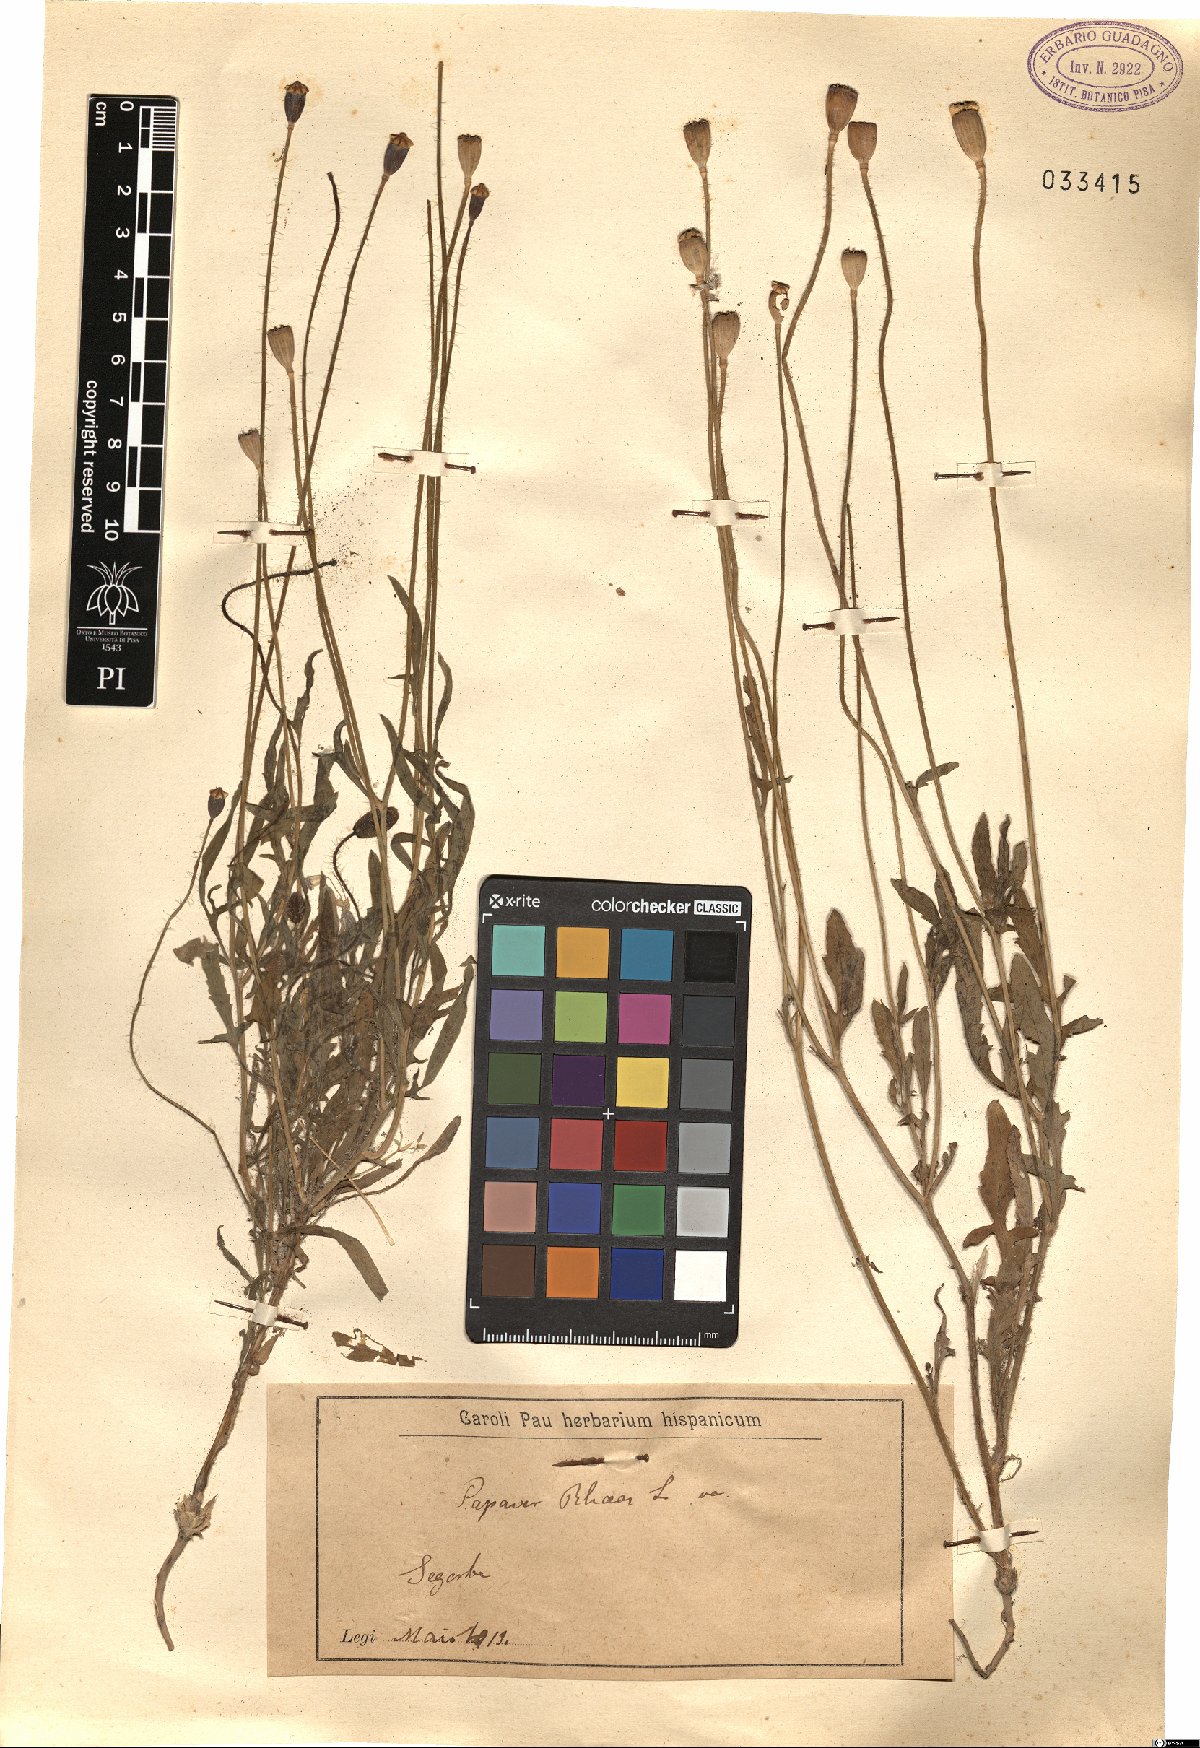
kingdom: Plantae
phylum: Tracheophyta
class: Magnoliopsida
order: Ranunculales
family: Papaveraceae
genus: Papaver
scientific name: Papaver rhoeas
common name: Corn poppy
